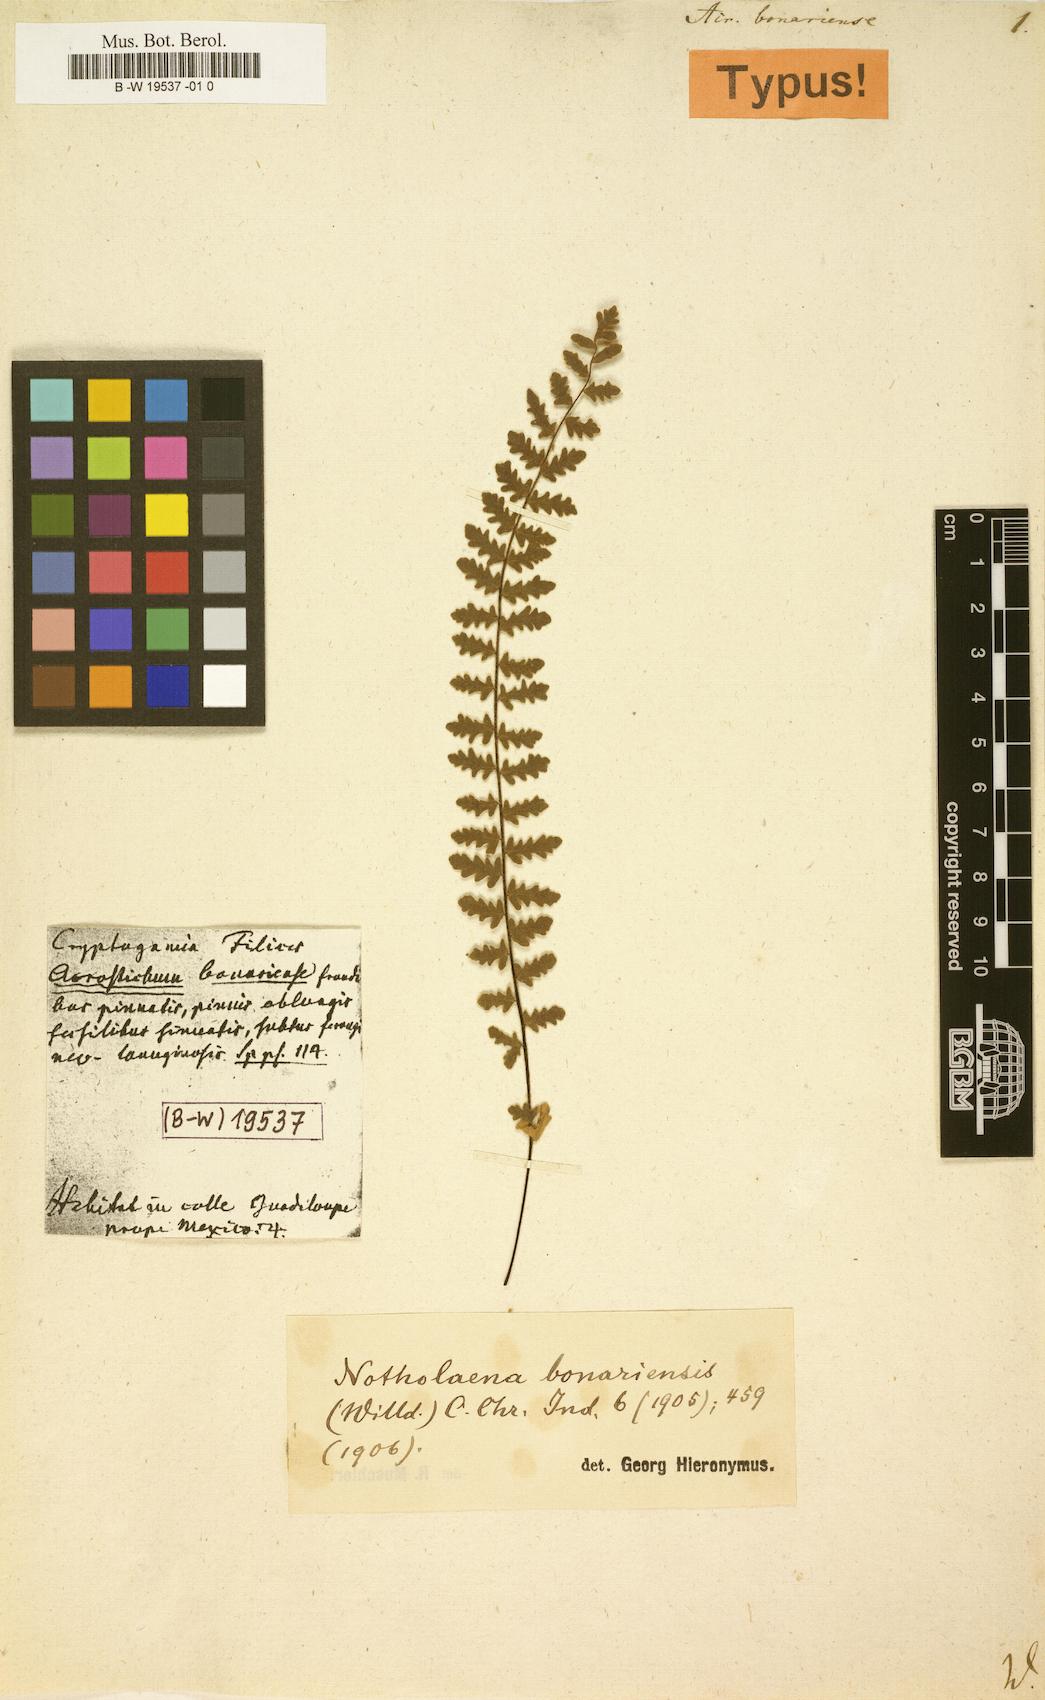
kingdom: Plantae
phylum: Tracheophyta
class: Polypodiopsida
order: Polypodiales
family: Pteridaceae
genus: Myriopteris
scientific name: Myriopteris aurea
